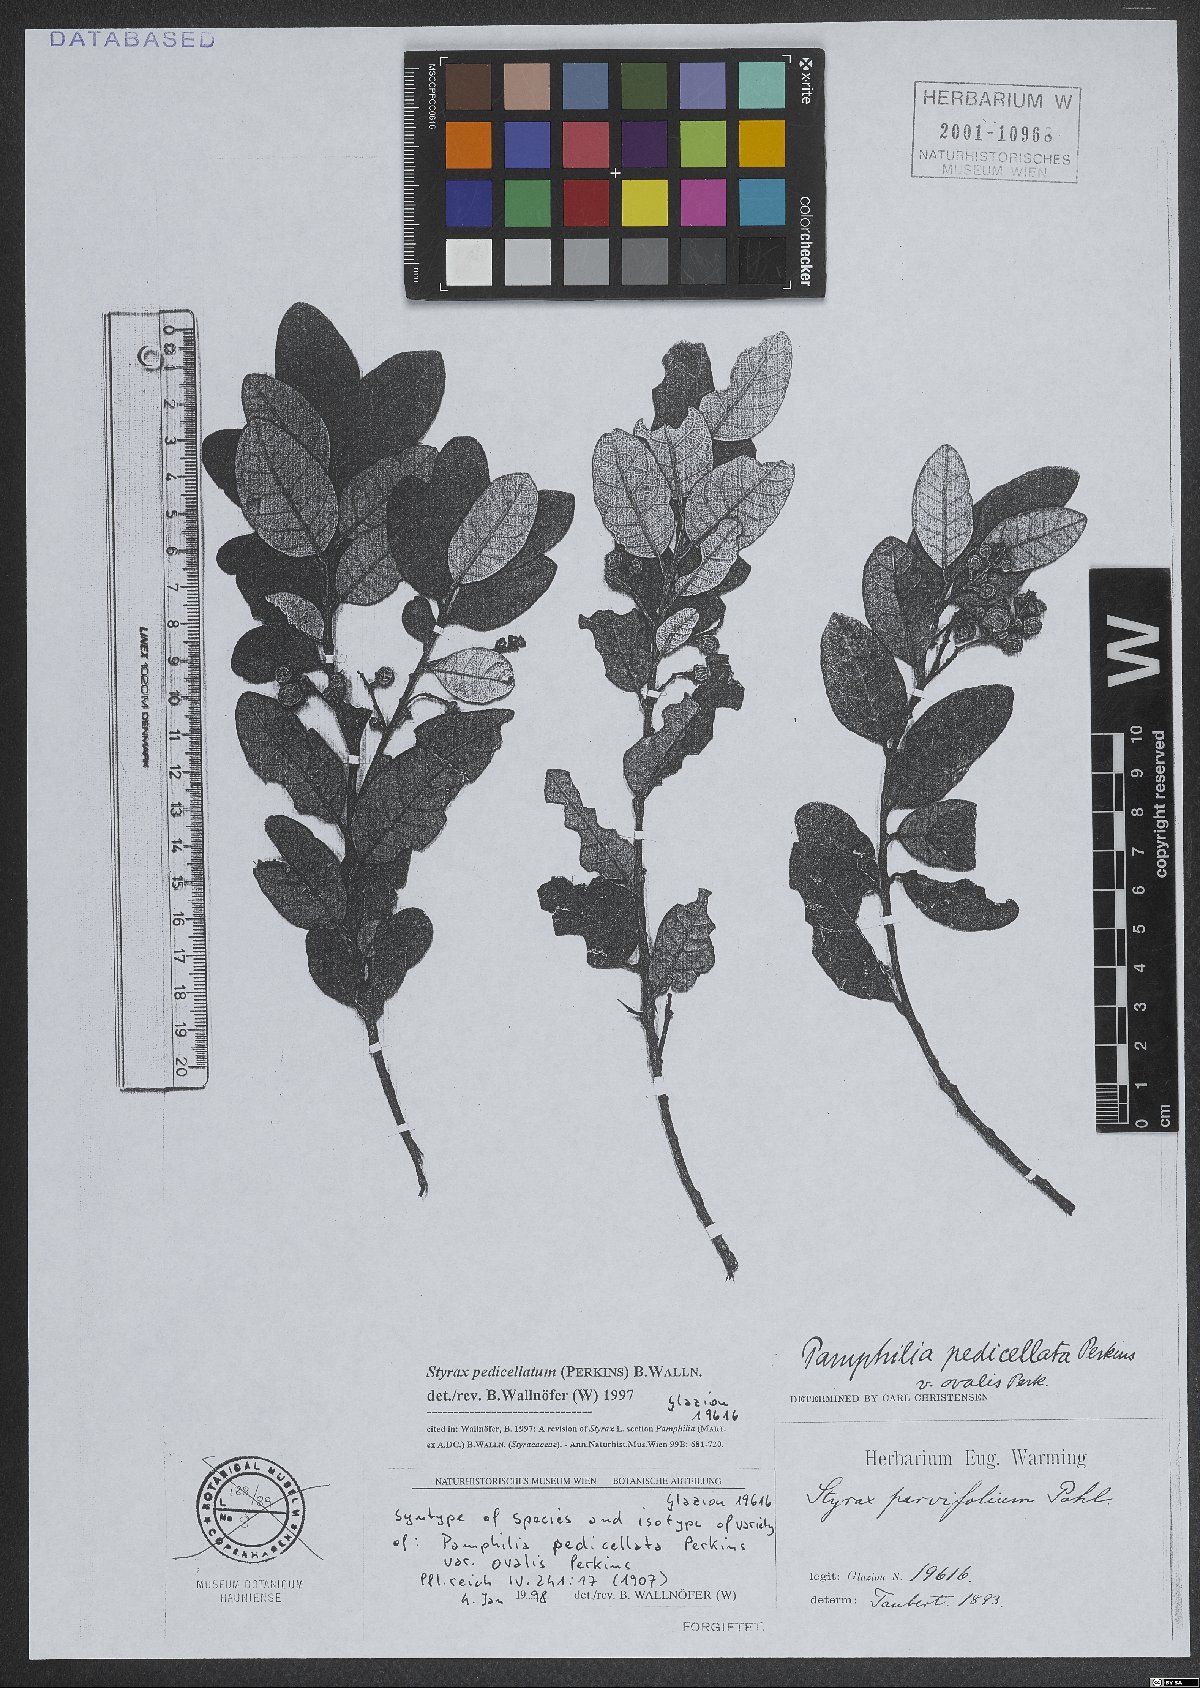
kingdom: Plantae
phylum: Tracheophyta
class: Magnoliopsida
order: Ericales
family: Styracaceae
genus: Styrax
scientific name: Styrax pedicellatus
